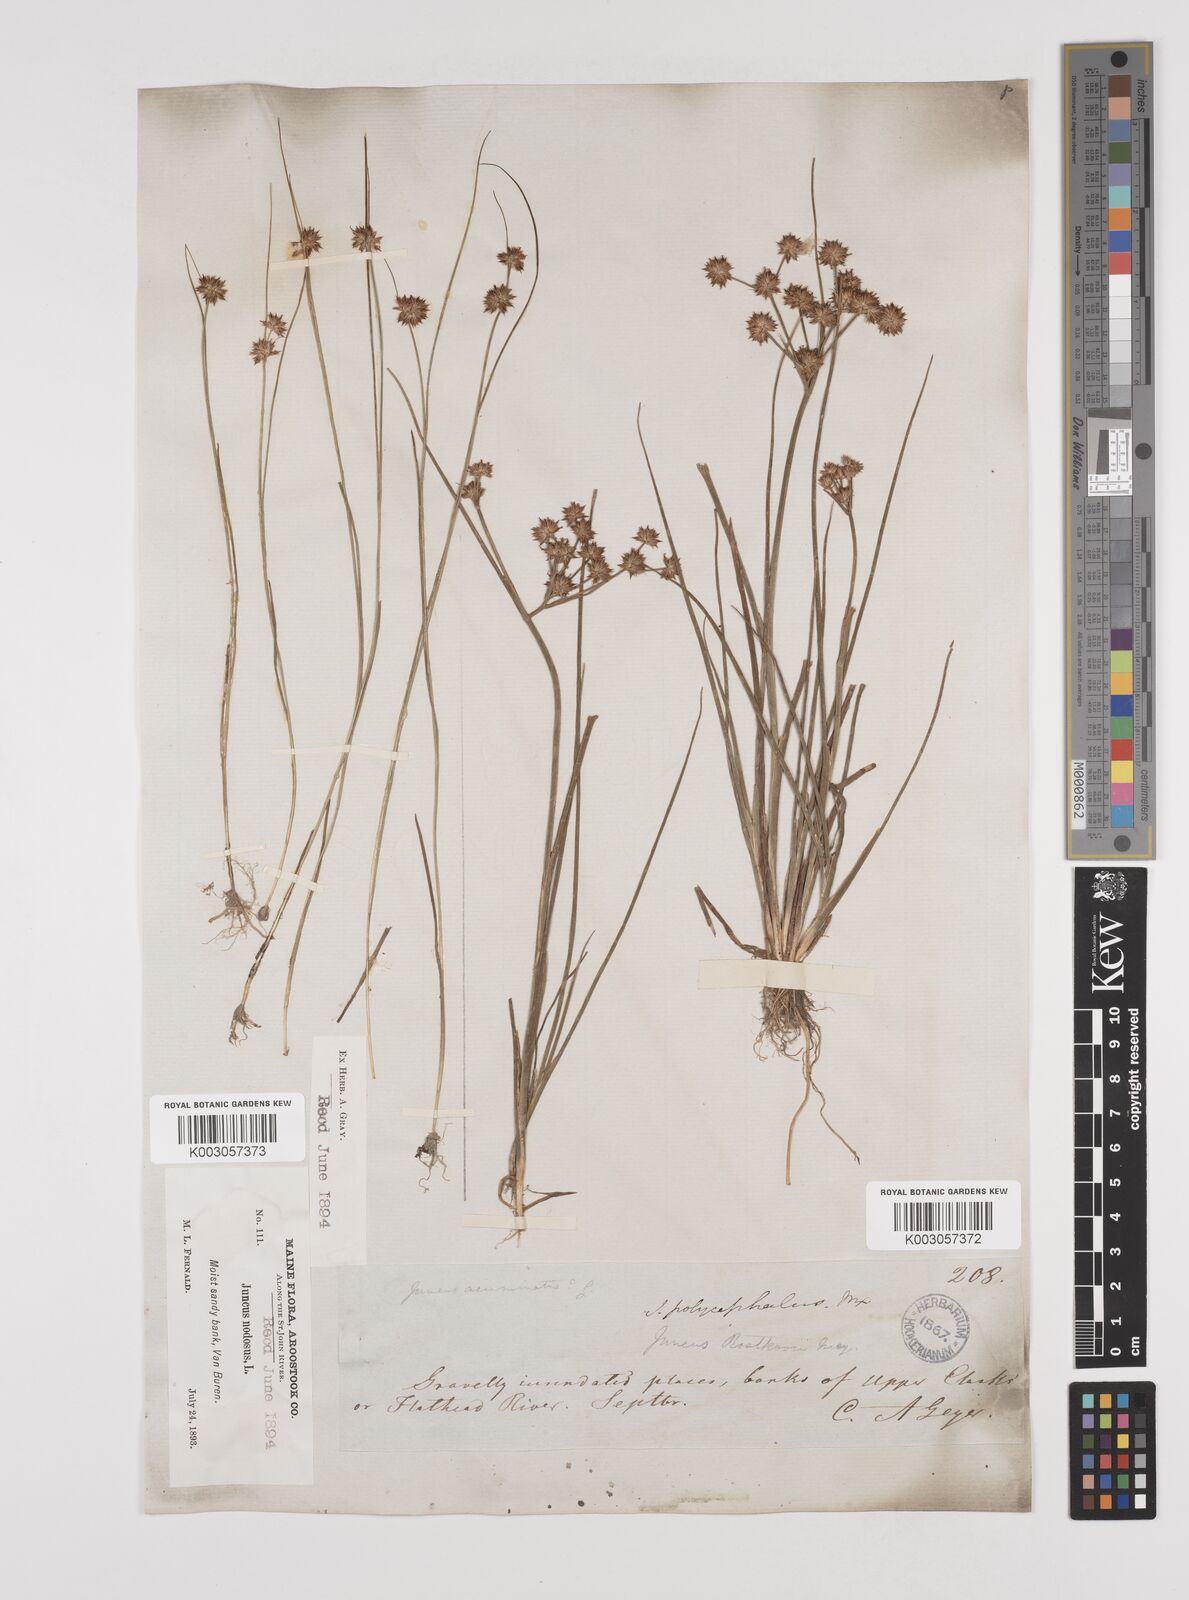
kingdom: Plantae
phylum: Tracheophyta
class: Liliopsida
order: Poales
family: Juncaceae
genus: Juncus
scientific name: Juncus nodosus
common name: Knotted rush
